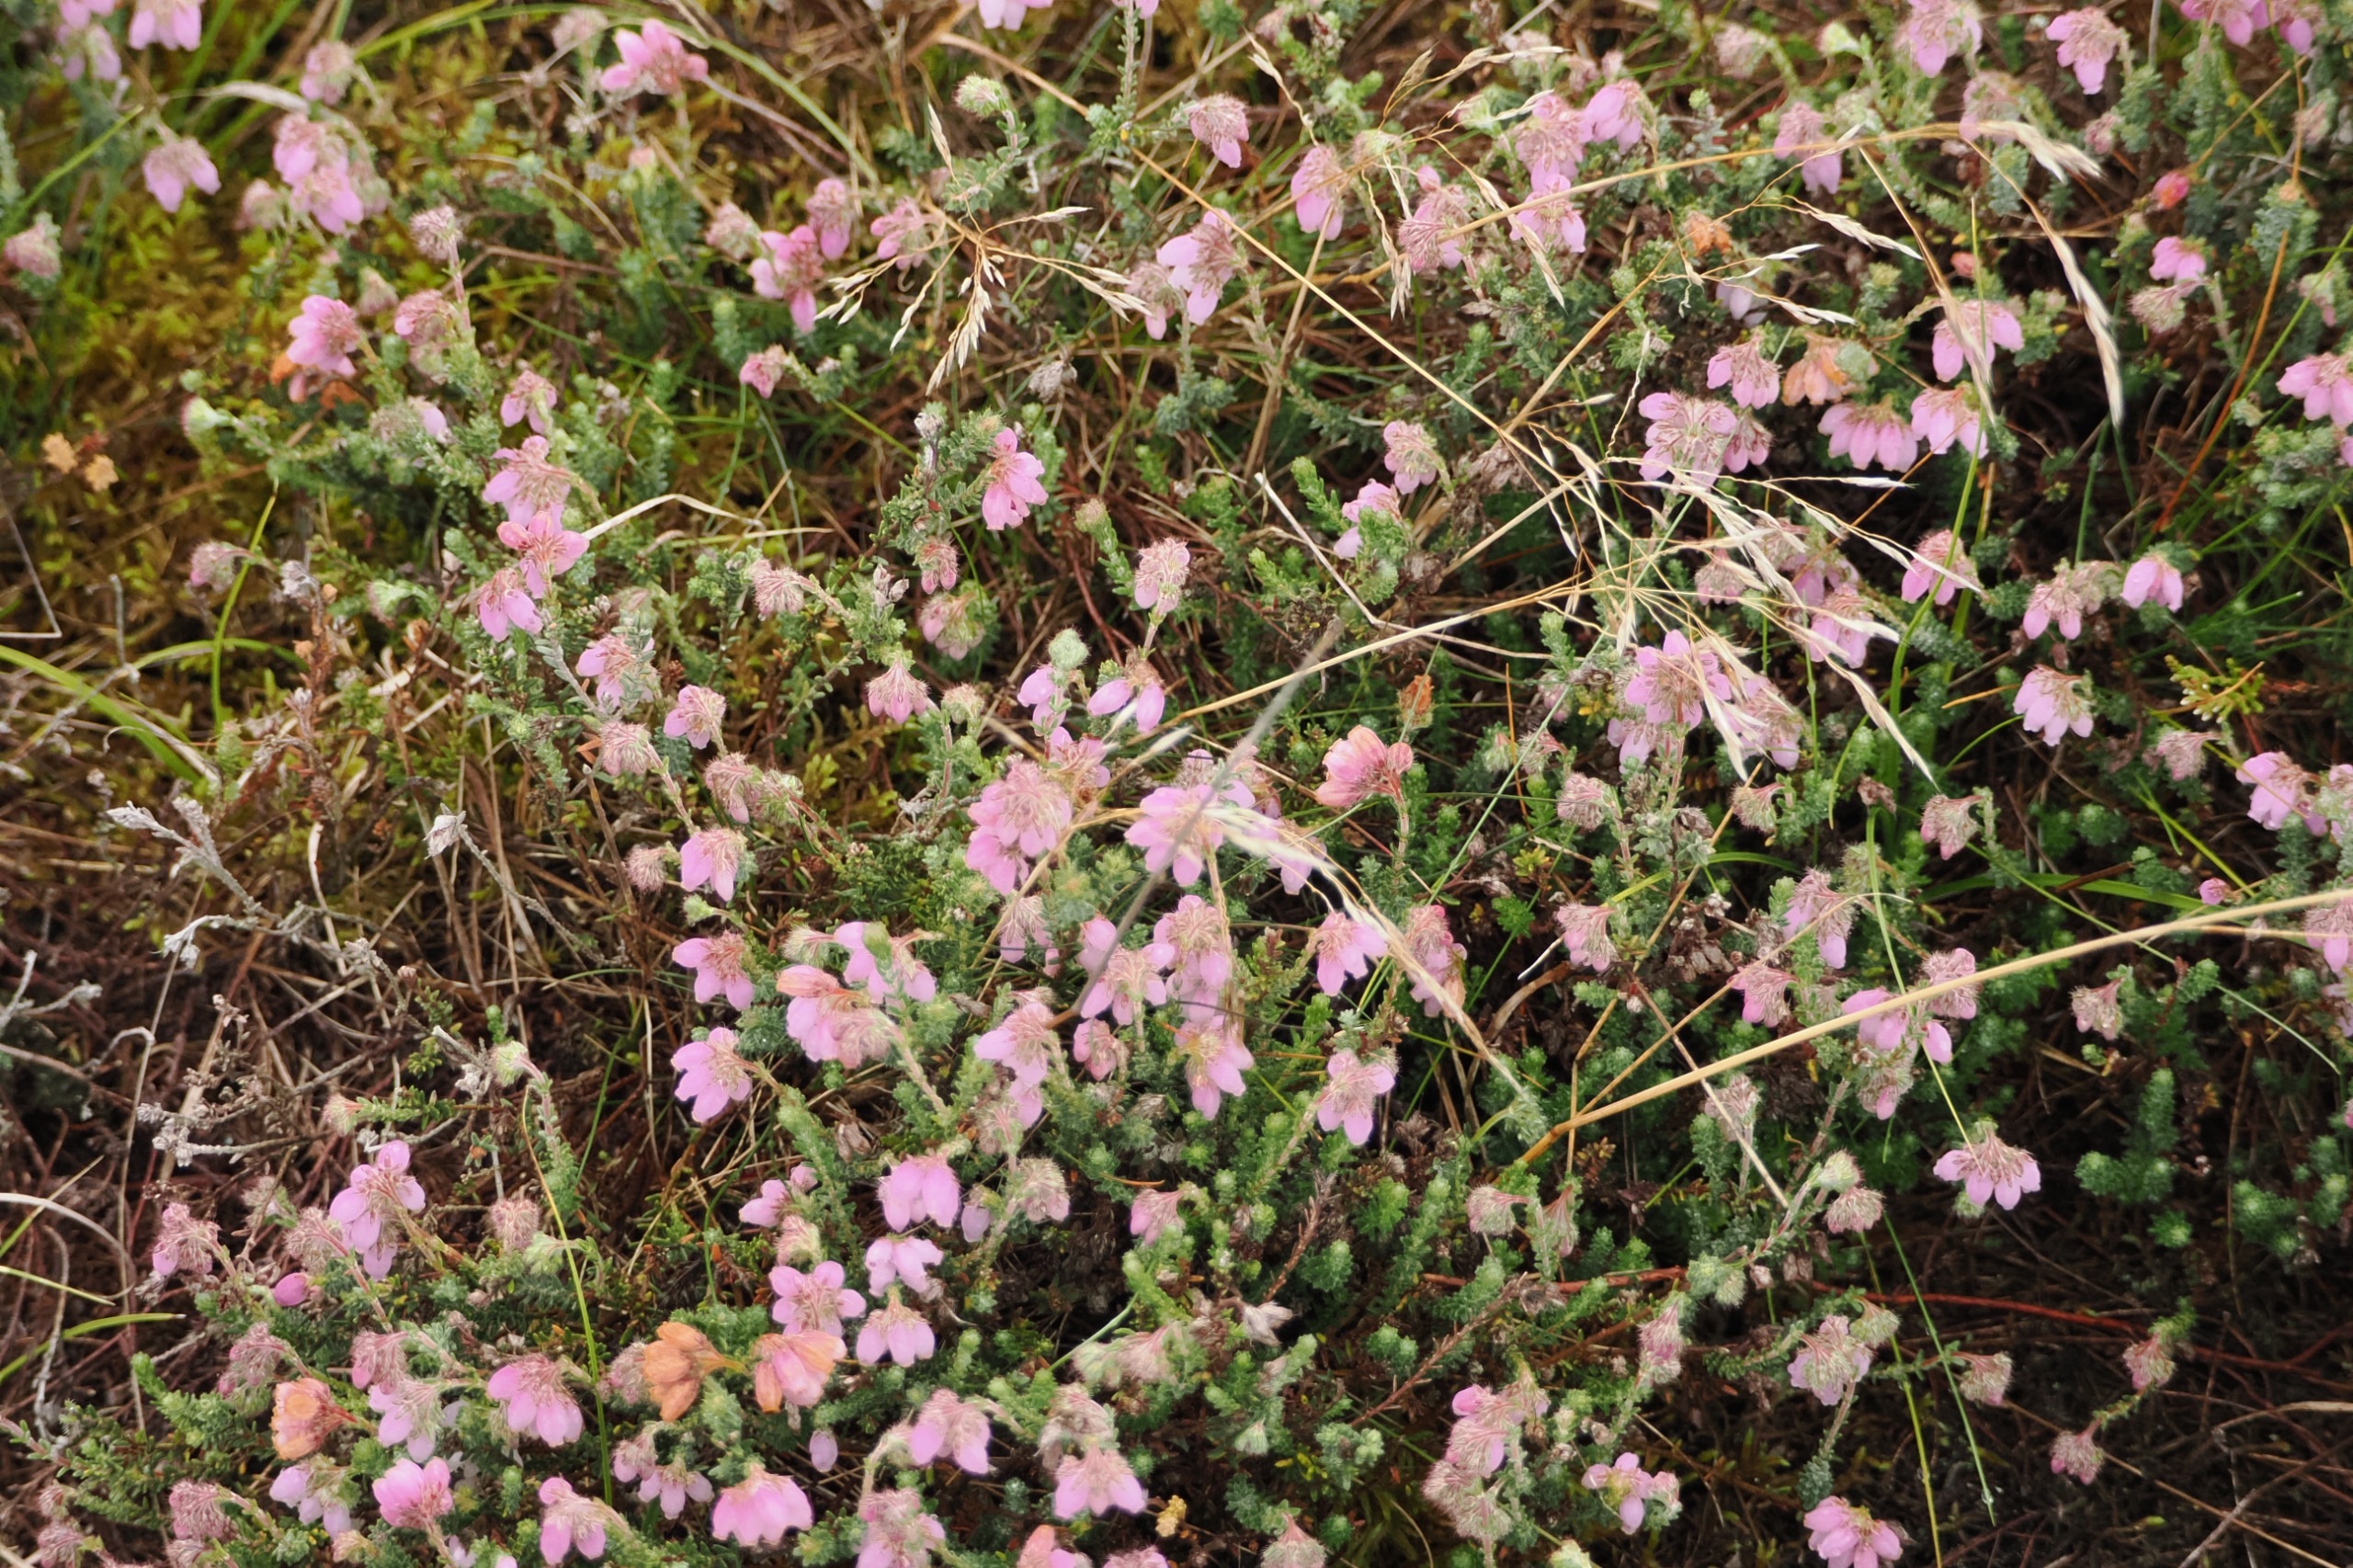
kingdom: Plantae
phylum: Tracheophyta
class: Magnoliopsida
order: Ericales
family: Ericaceae
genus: Erica
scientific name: Erica tetralix
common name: Klokkelyng
